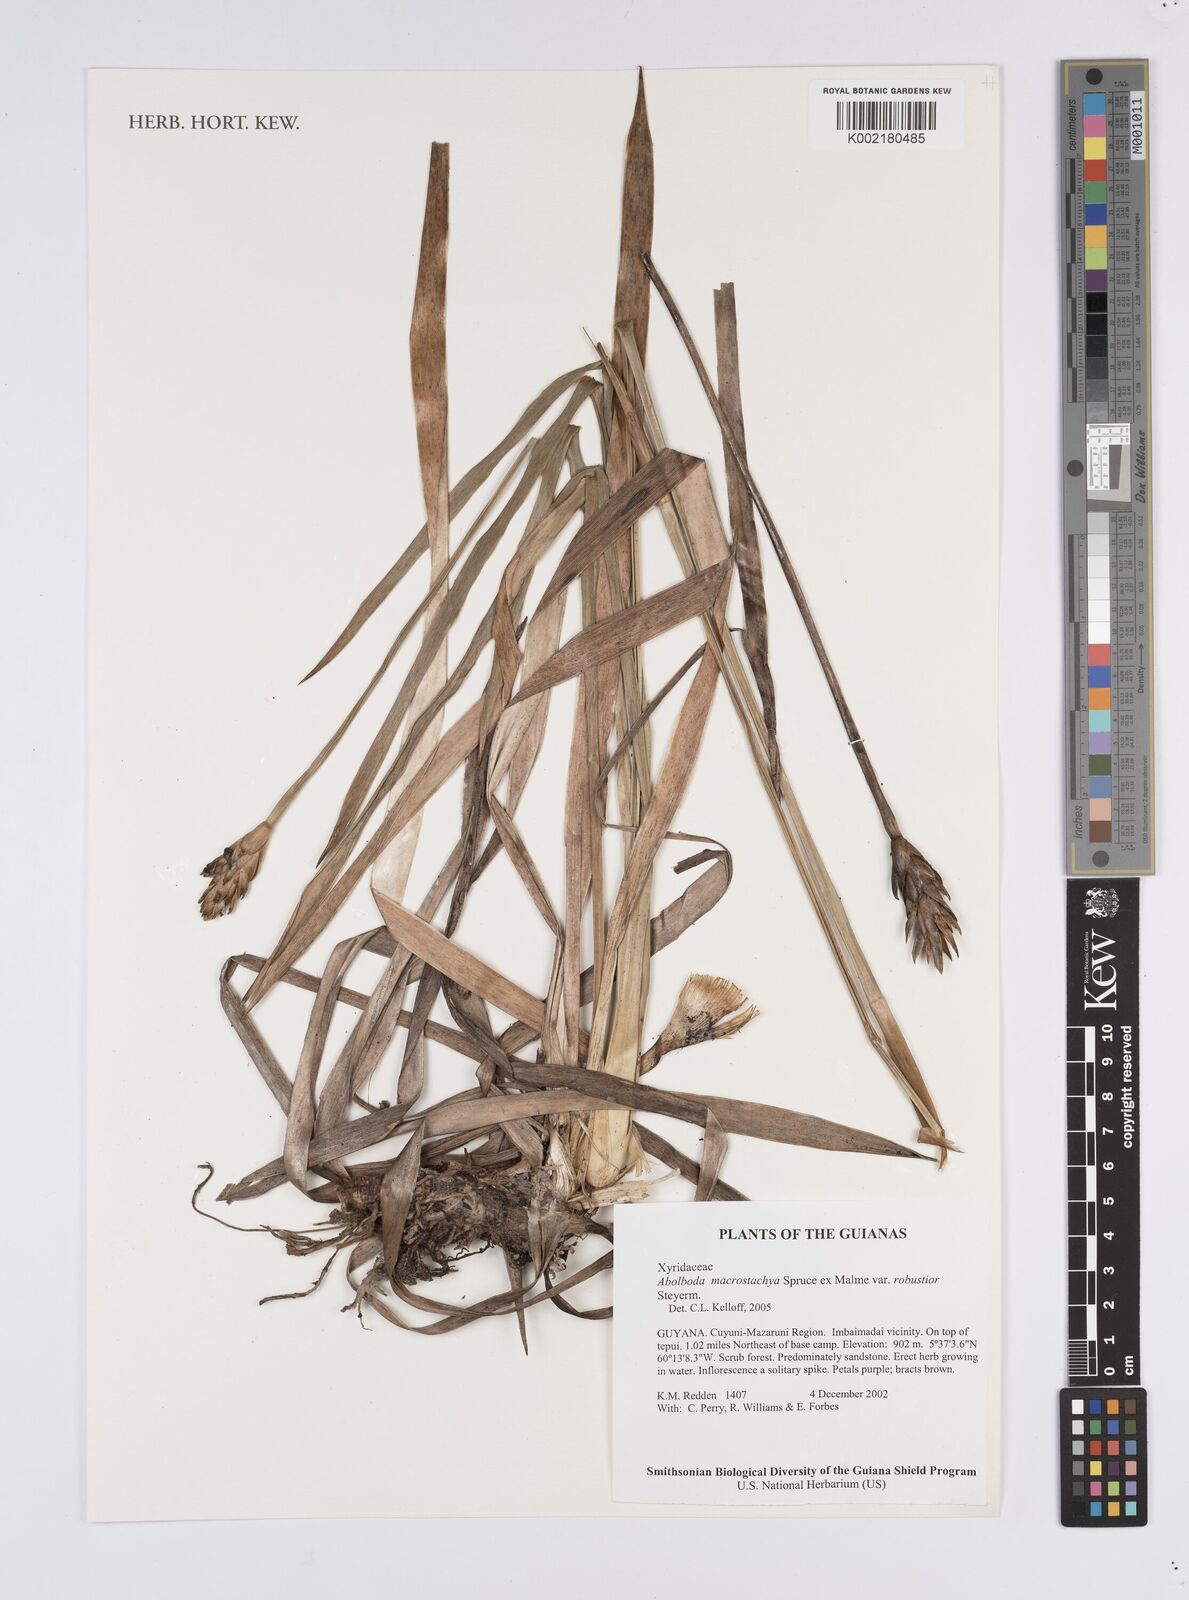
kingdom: Plantae
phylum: Tracheophyta
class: Liliopsida
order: Poales
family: Xyridaceae
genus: Abolboda
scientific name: Abolboda macrostachya
